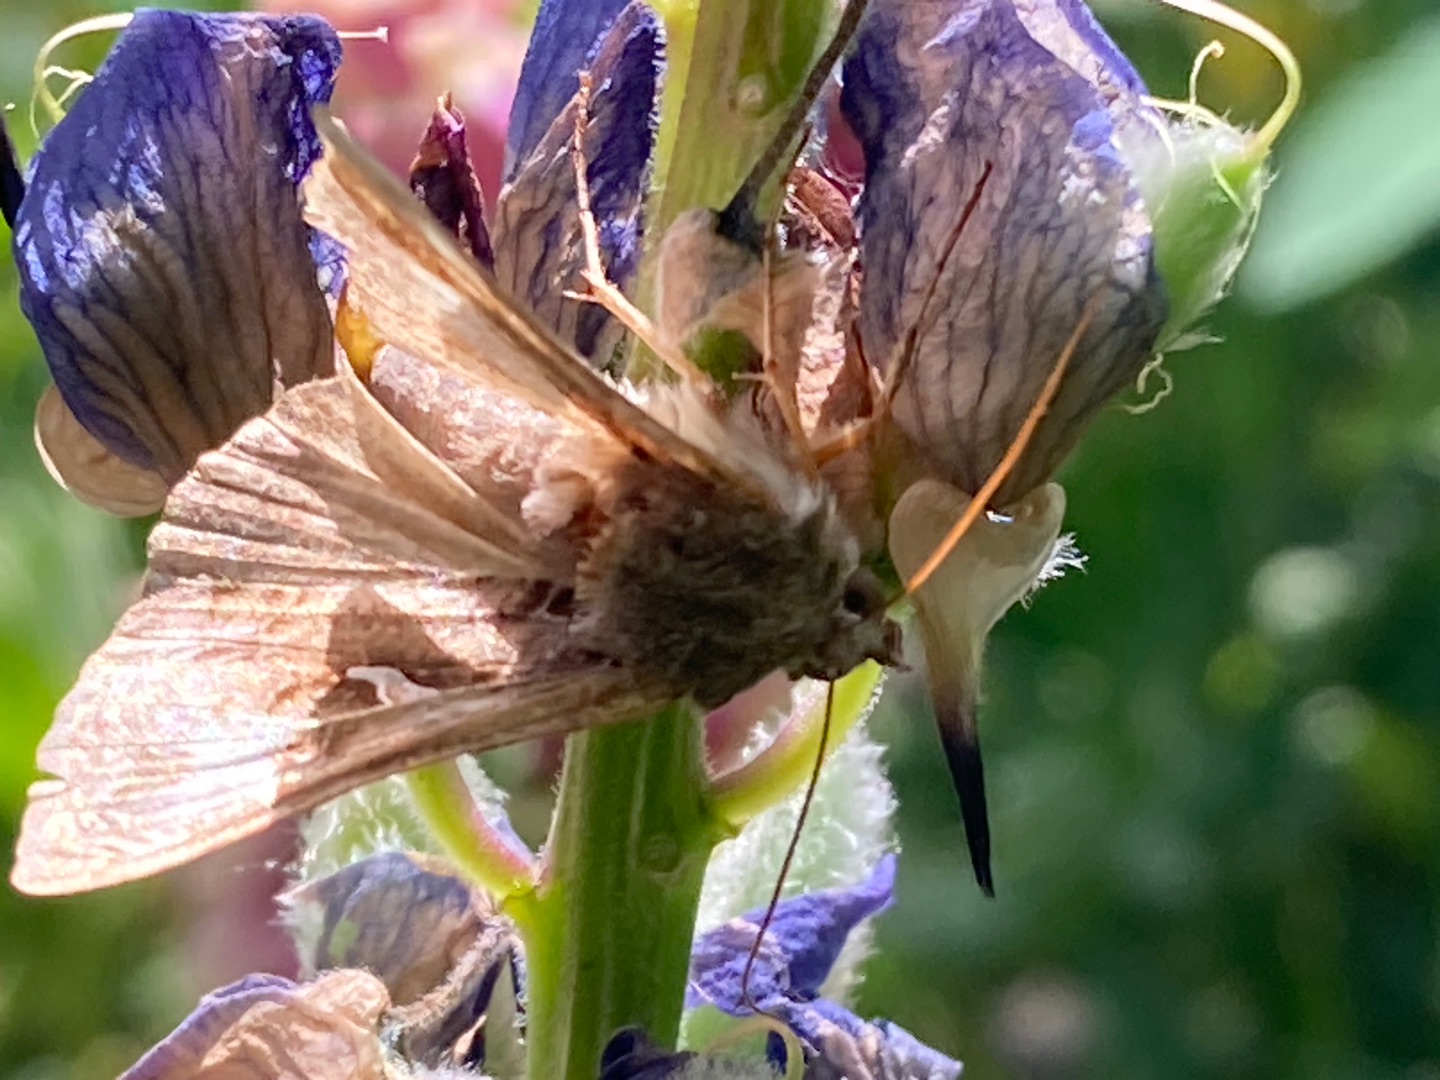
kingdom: Animalia
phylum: Arthropoda
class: Insecta
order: Lepidoptera
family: Noctuidae
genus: Autographa
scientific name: Autographa gamma
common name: Gammaugle
